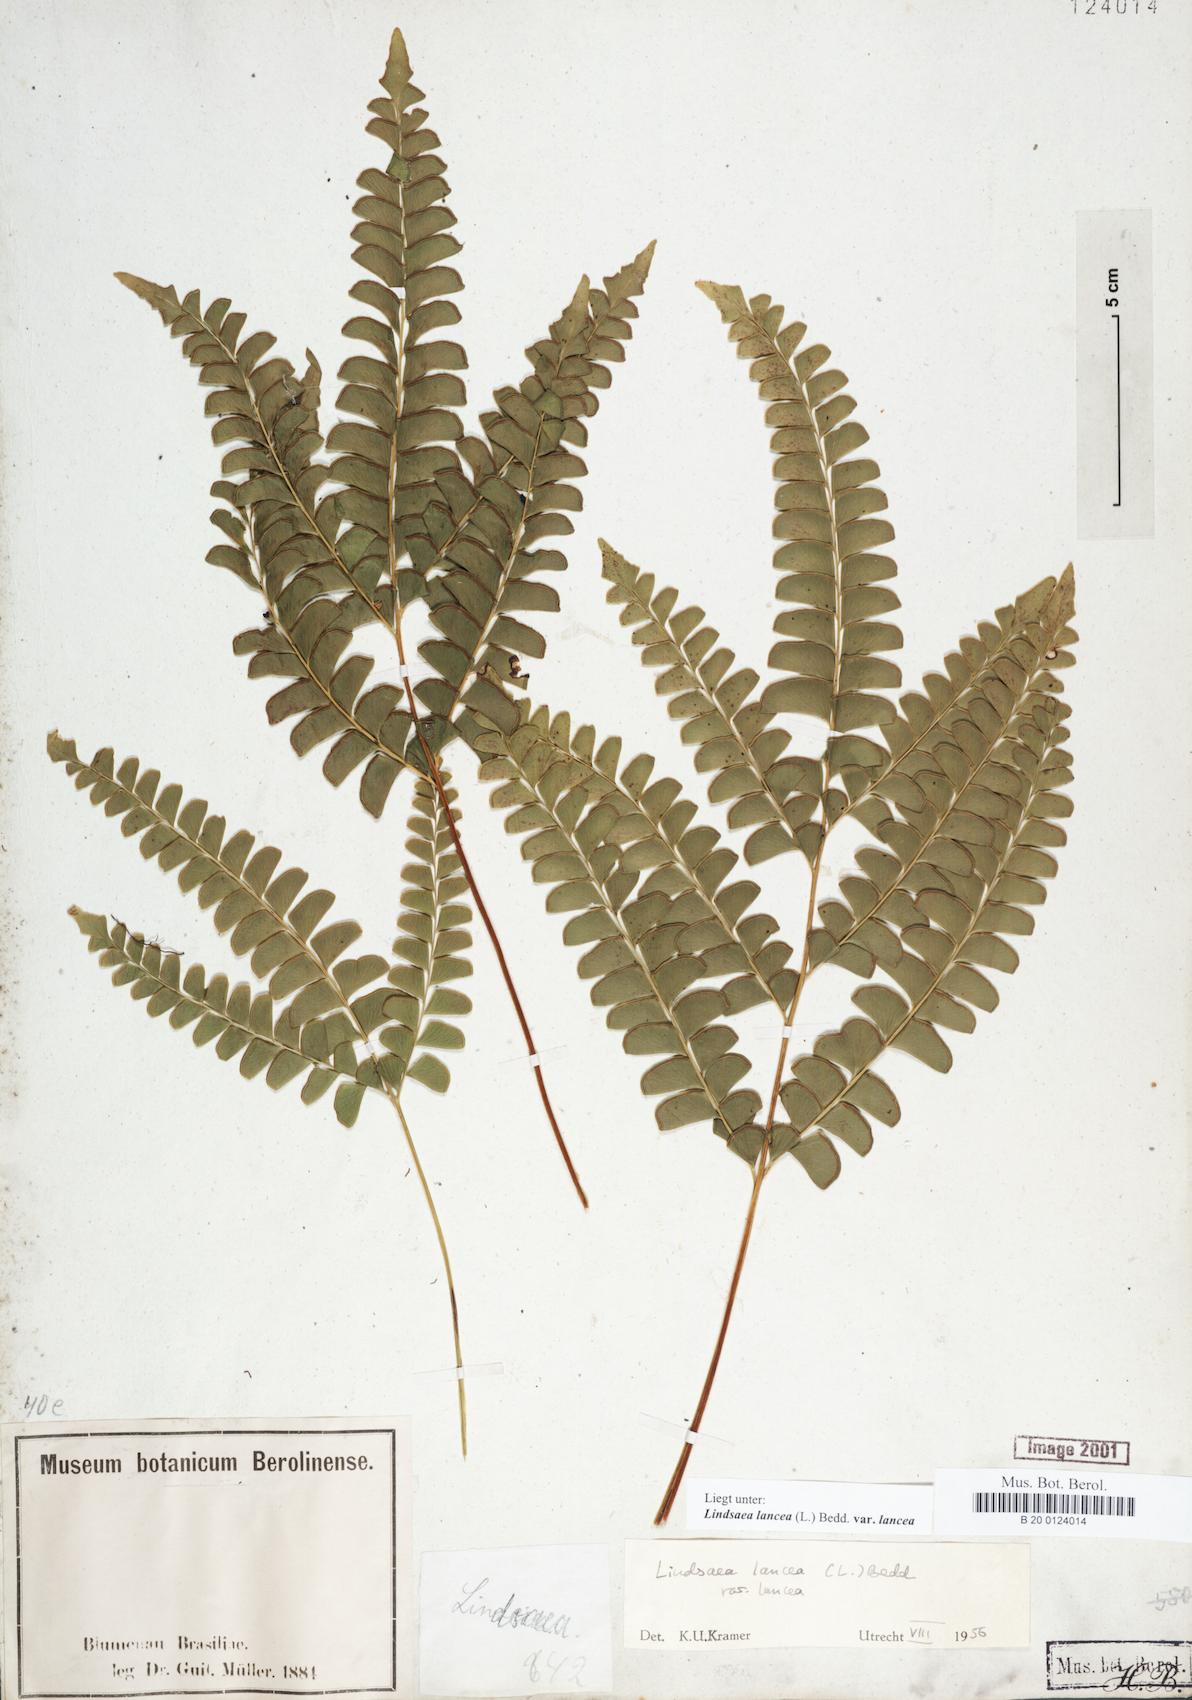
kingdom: Plantae
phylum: Tracheophyta
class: Polypodiopsida
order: Polypodiales
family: Lindsaeaceae
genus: Lindsaea
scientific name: Lindsaea lancea
